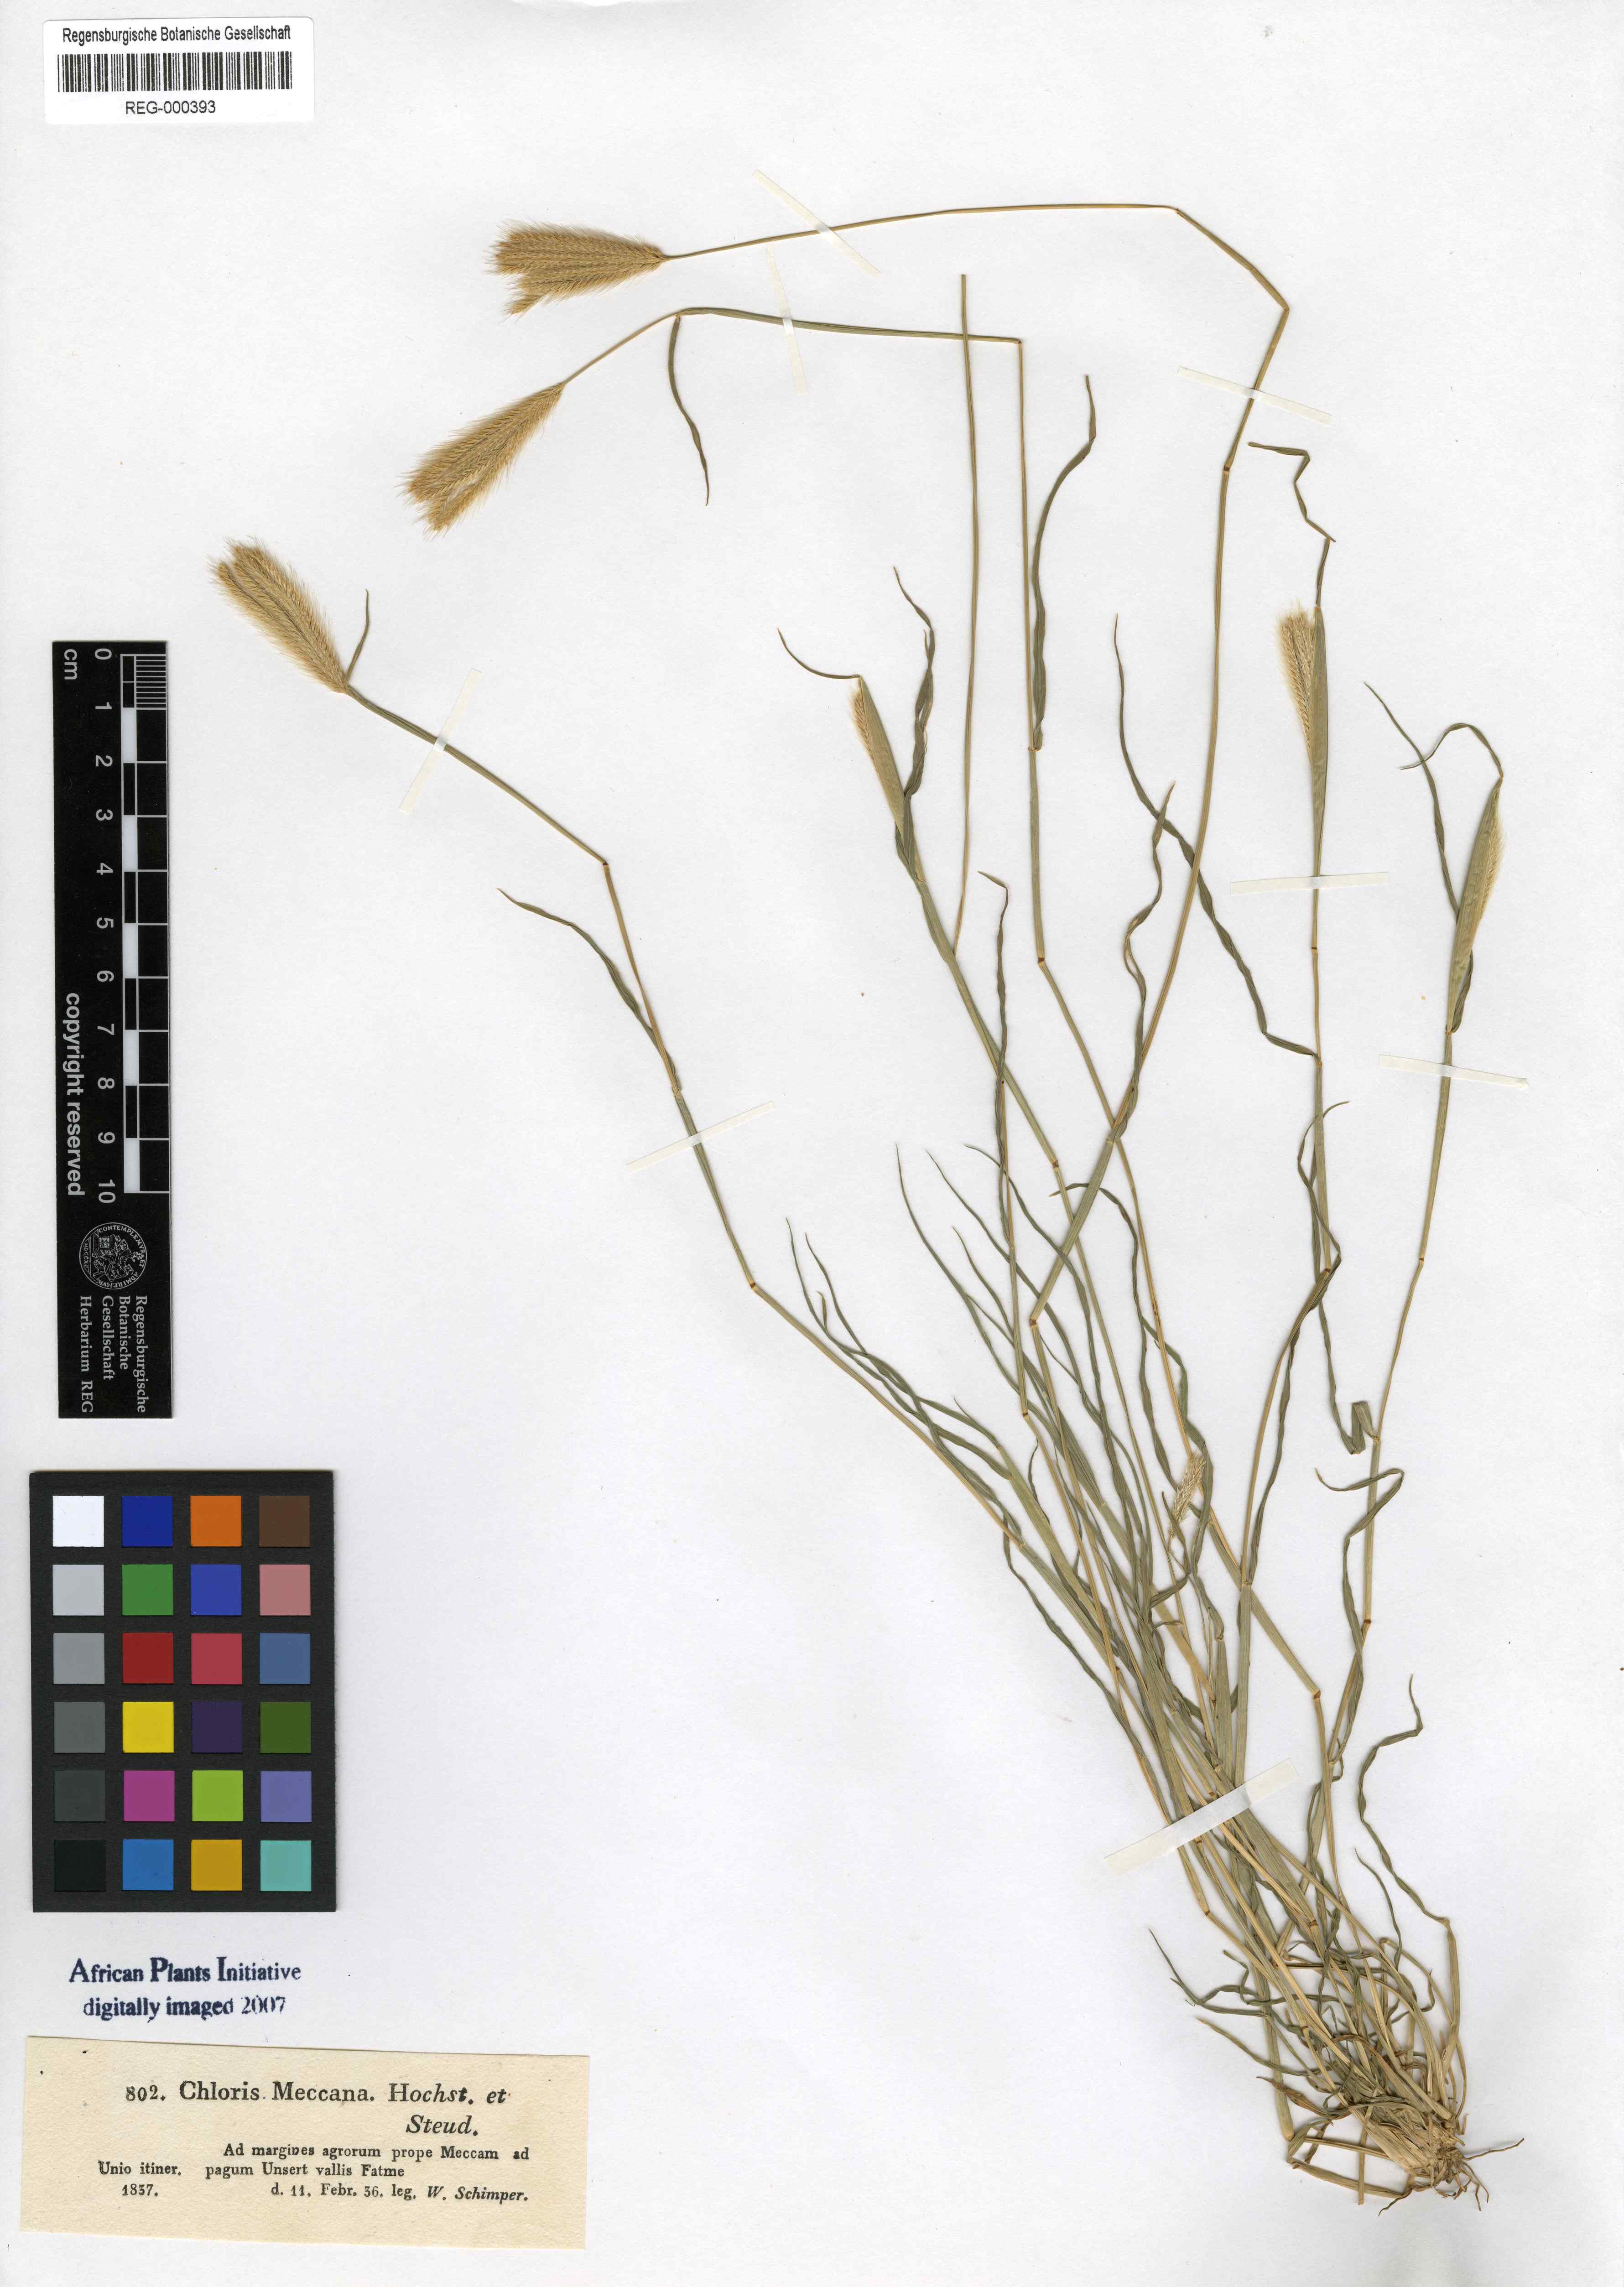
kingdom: Plantae
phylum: Tracheophyta
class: Liliopsida
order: Poales
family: Poaceae
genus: Chloris
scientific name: Chloris virgata
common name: Feathery rhodes-grass
